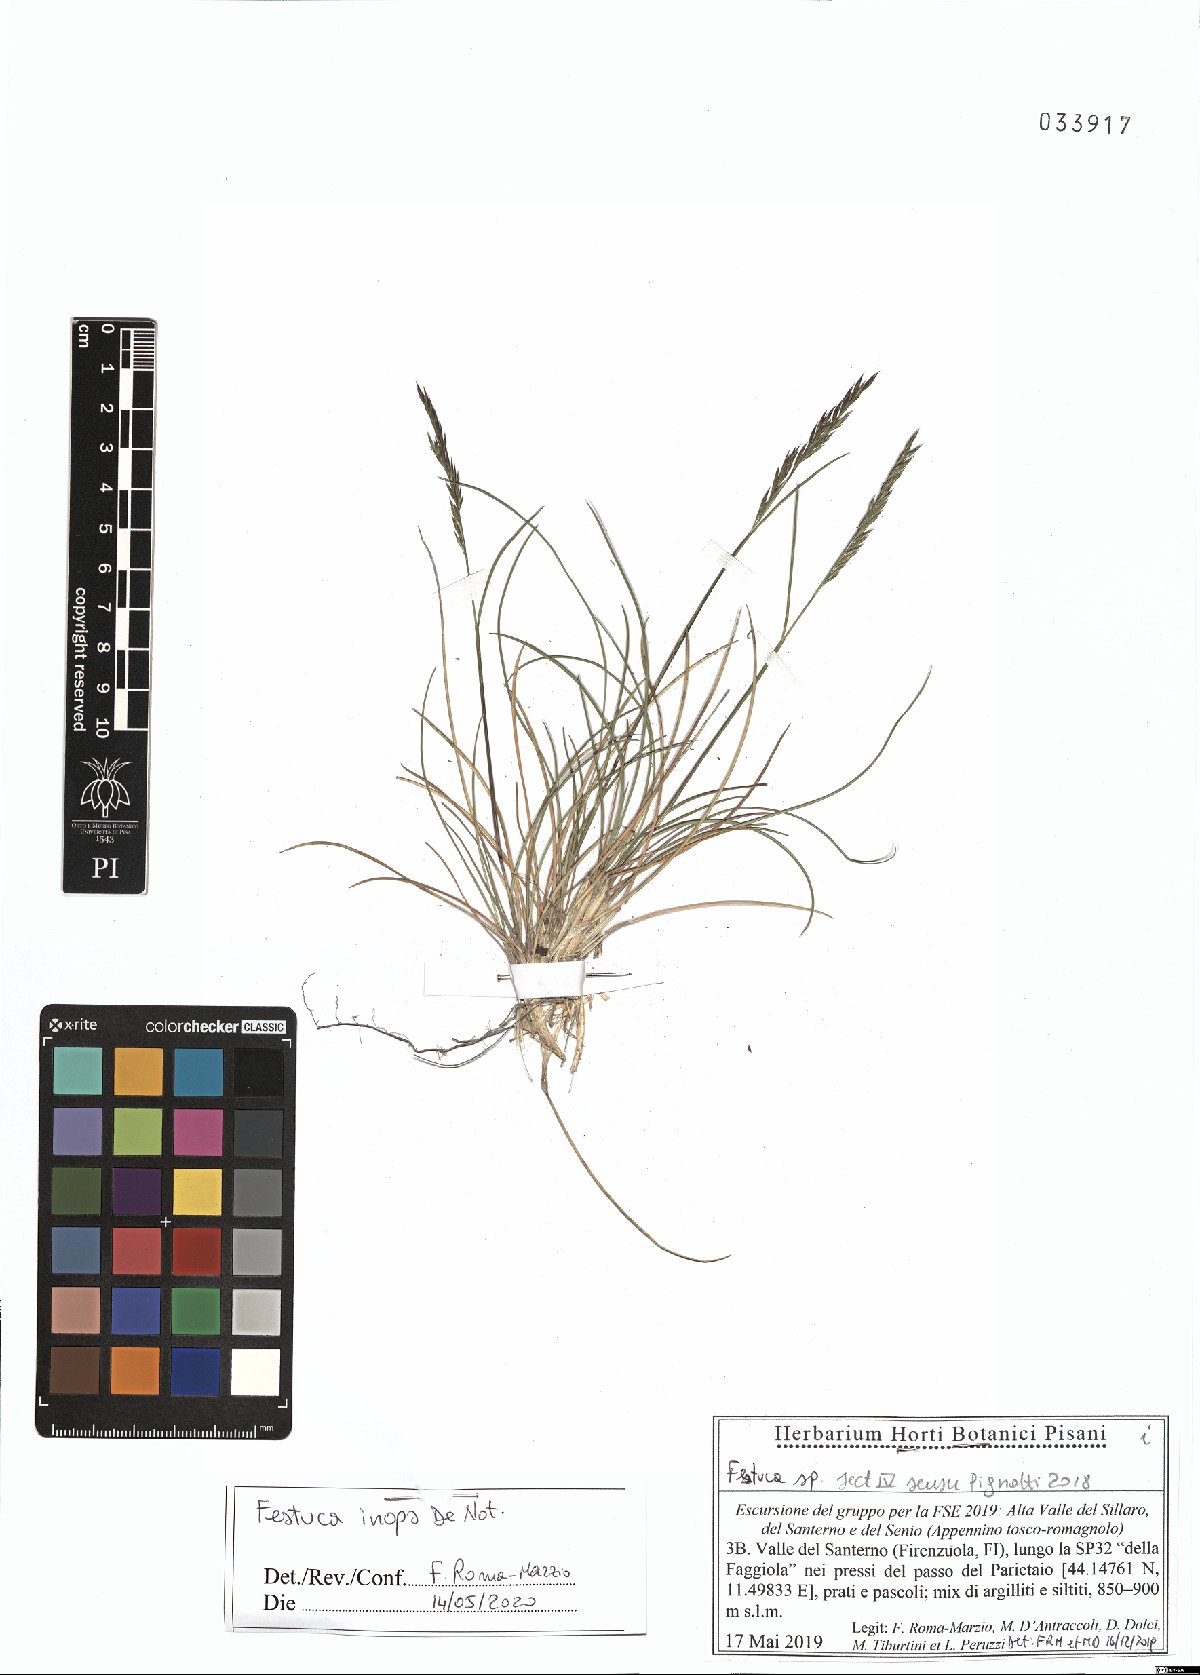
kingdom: Plantae
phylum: Tracheophyta
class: Liliopsida
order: Poales
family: Poaceae
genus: Festuca
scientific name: Festuca inops
